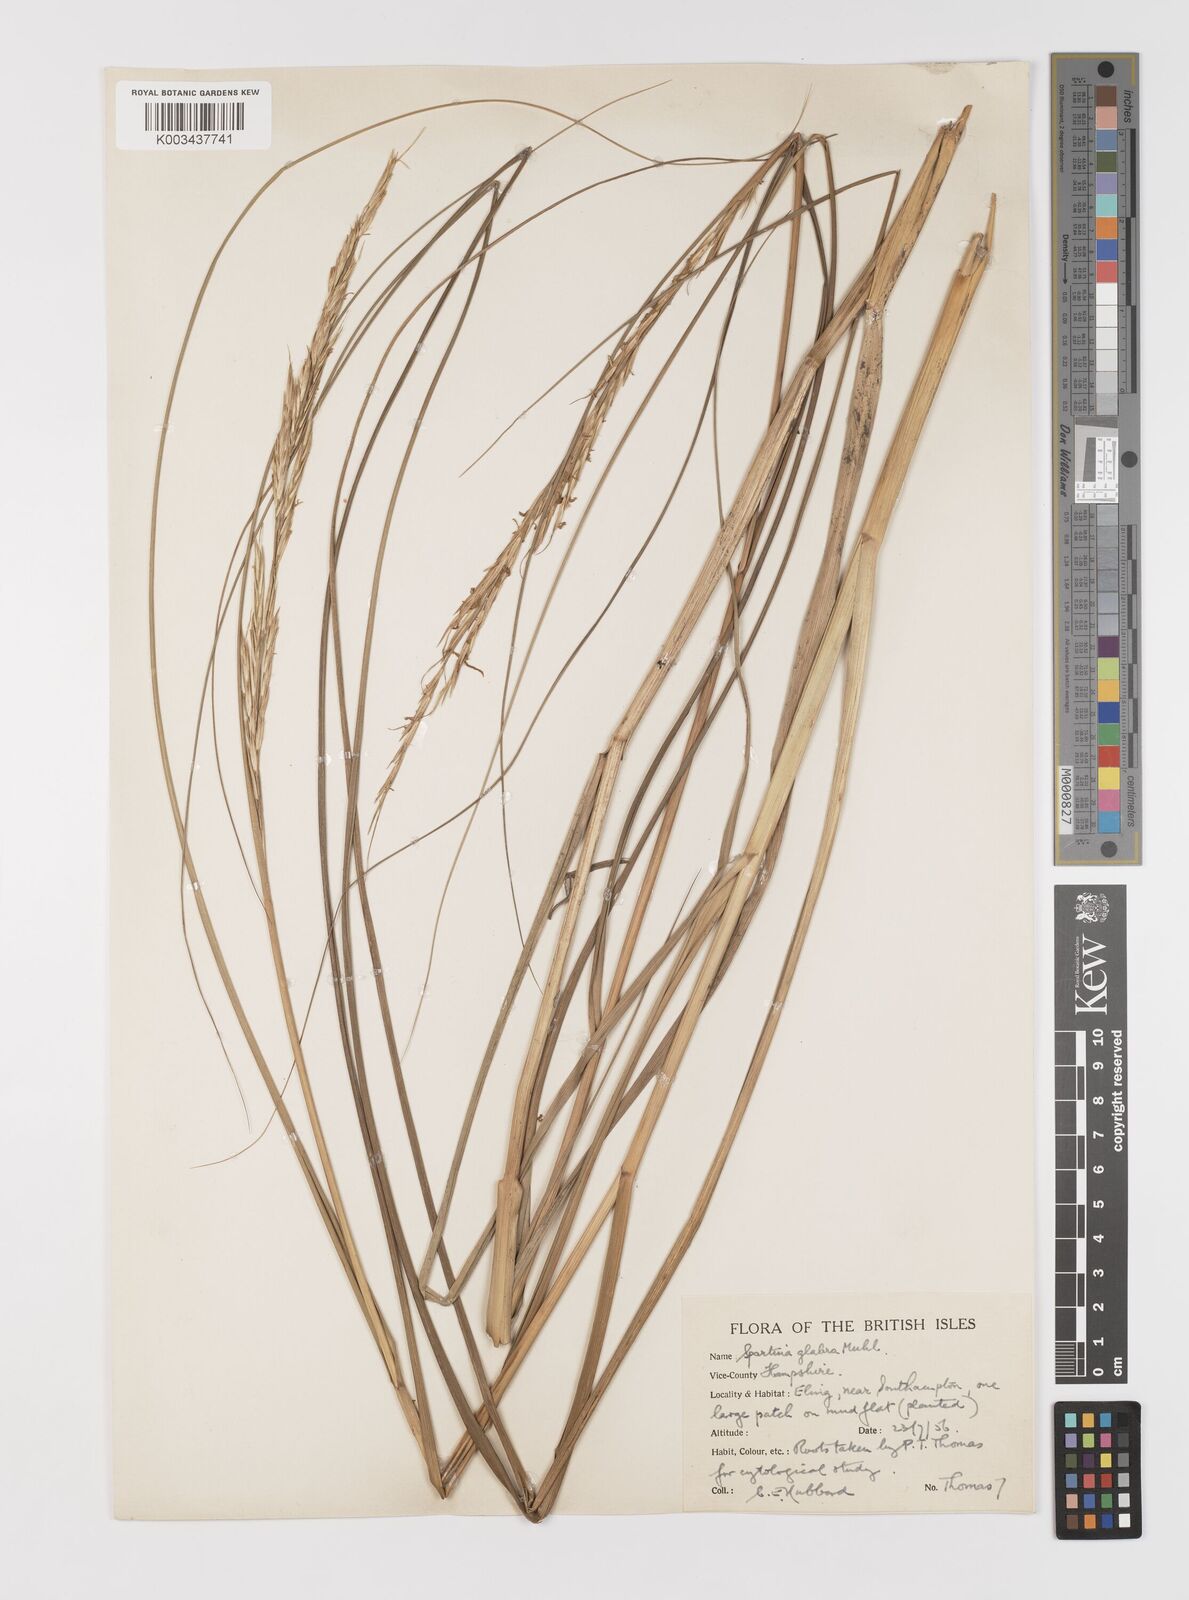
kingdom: Plantae
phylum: Tracheophyta
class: Liliopsida
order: Poales
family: Poaceae
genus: Sporobolus
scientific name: Sporobolus alterniflorus
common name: Atlantic cordgrass
